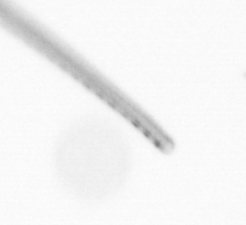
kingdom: Chromista
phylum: Ochrophyta
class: Bacillariophyceae
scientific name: Bacillariophyceae
